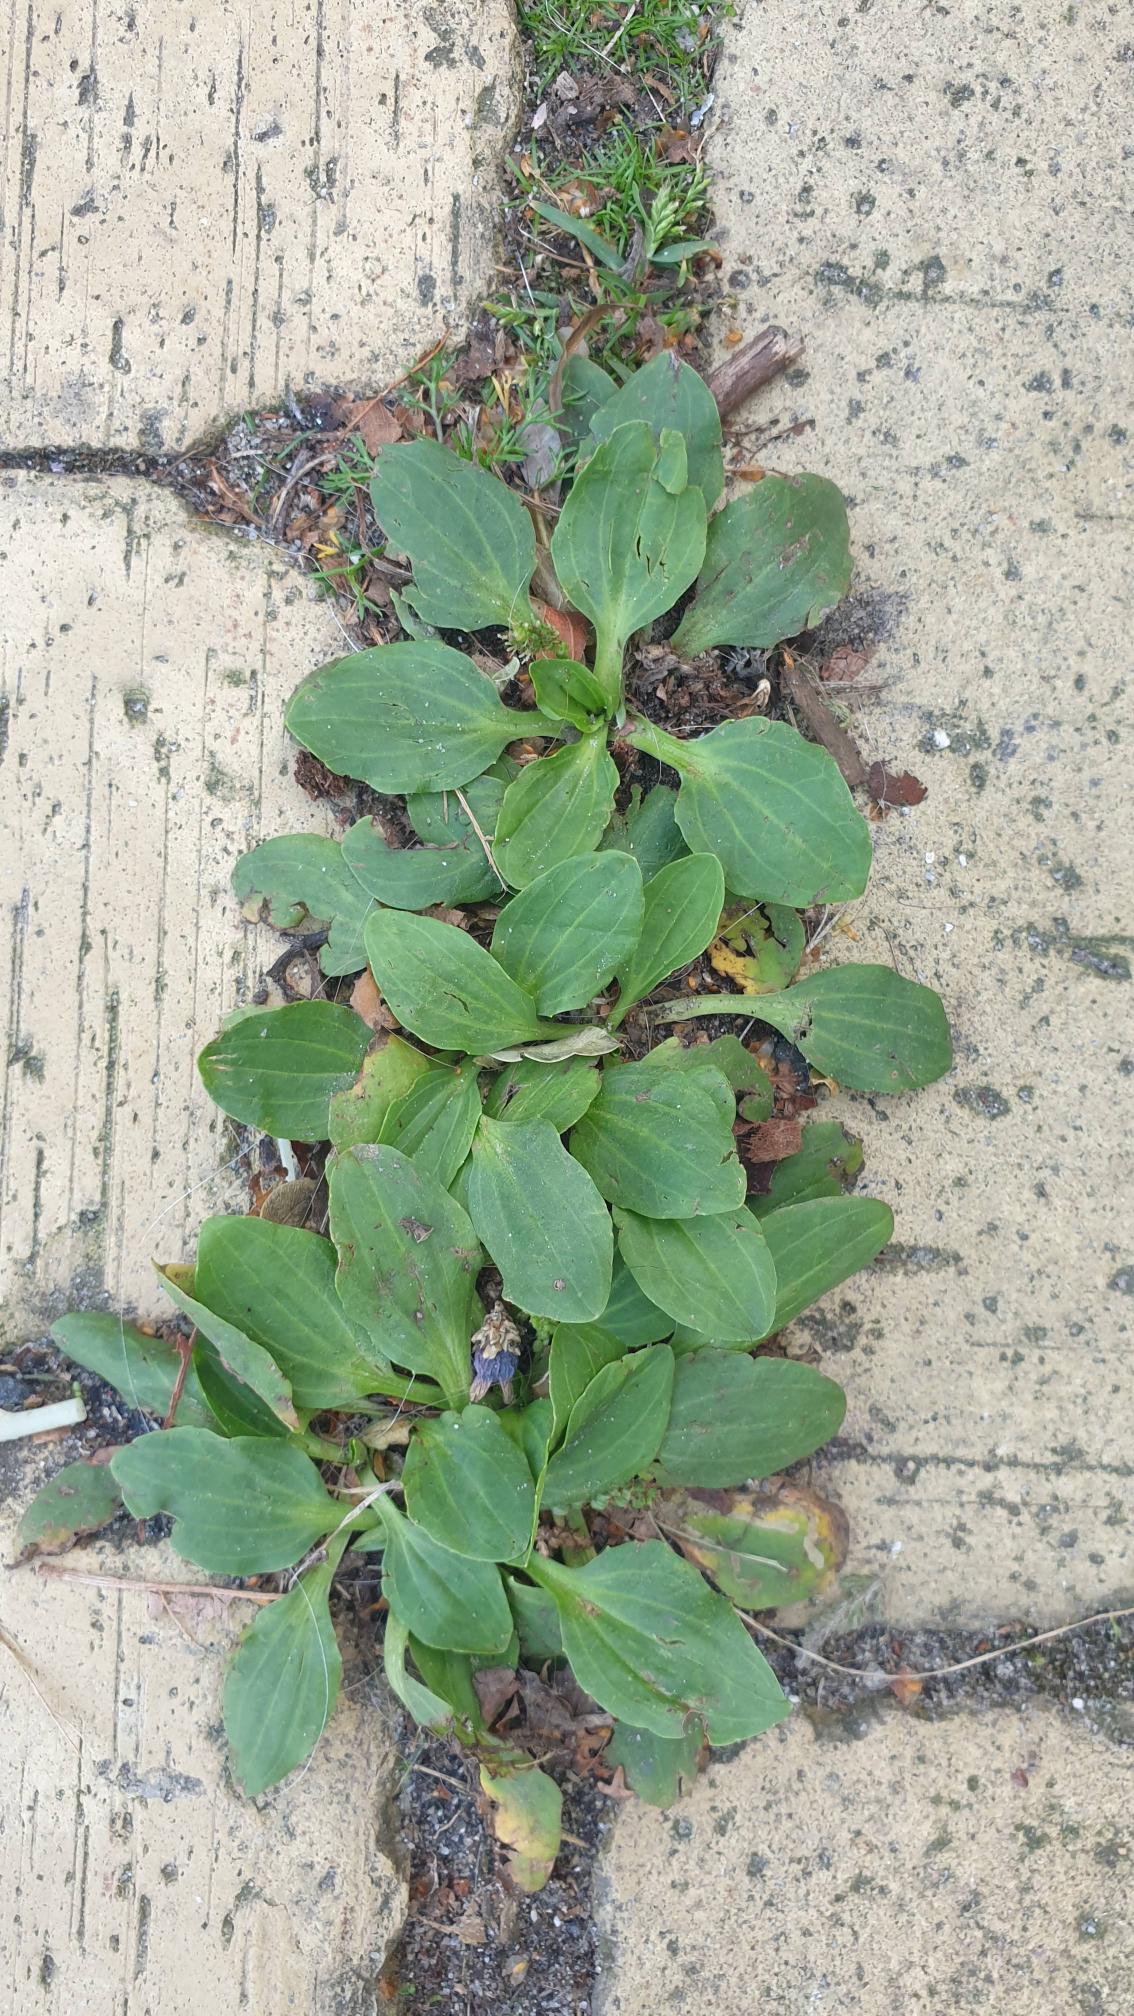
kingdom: Plantae
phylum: Tracheophyta
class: Magnoliopsida
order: Lamiales
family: Plantaginaceae
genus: Plantago
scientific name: Plantago major
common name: Glat vejbred
